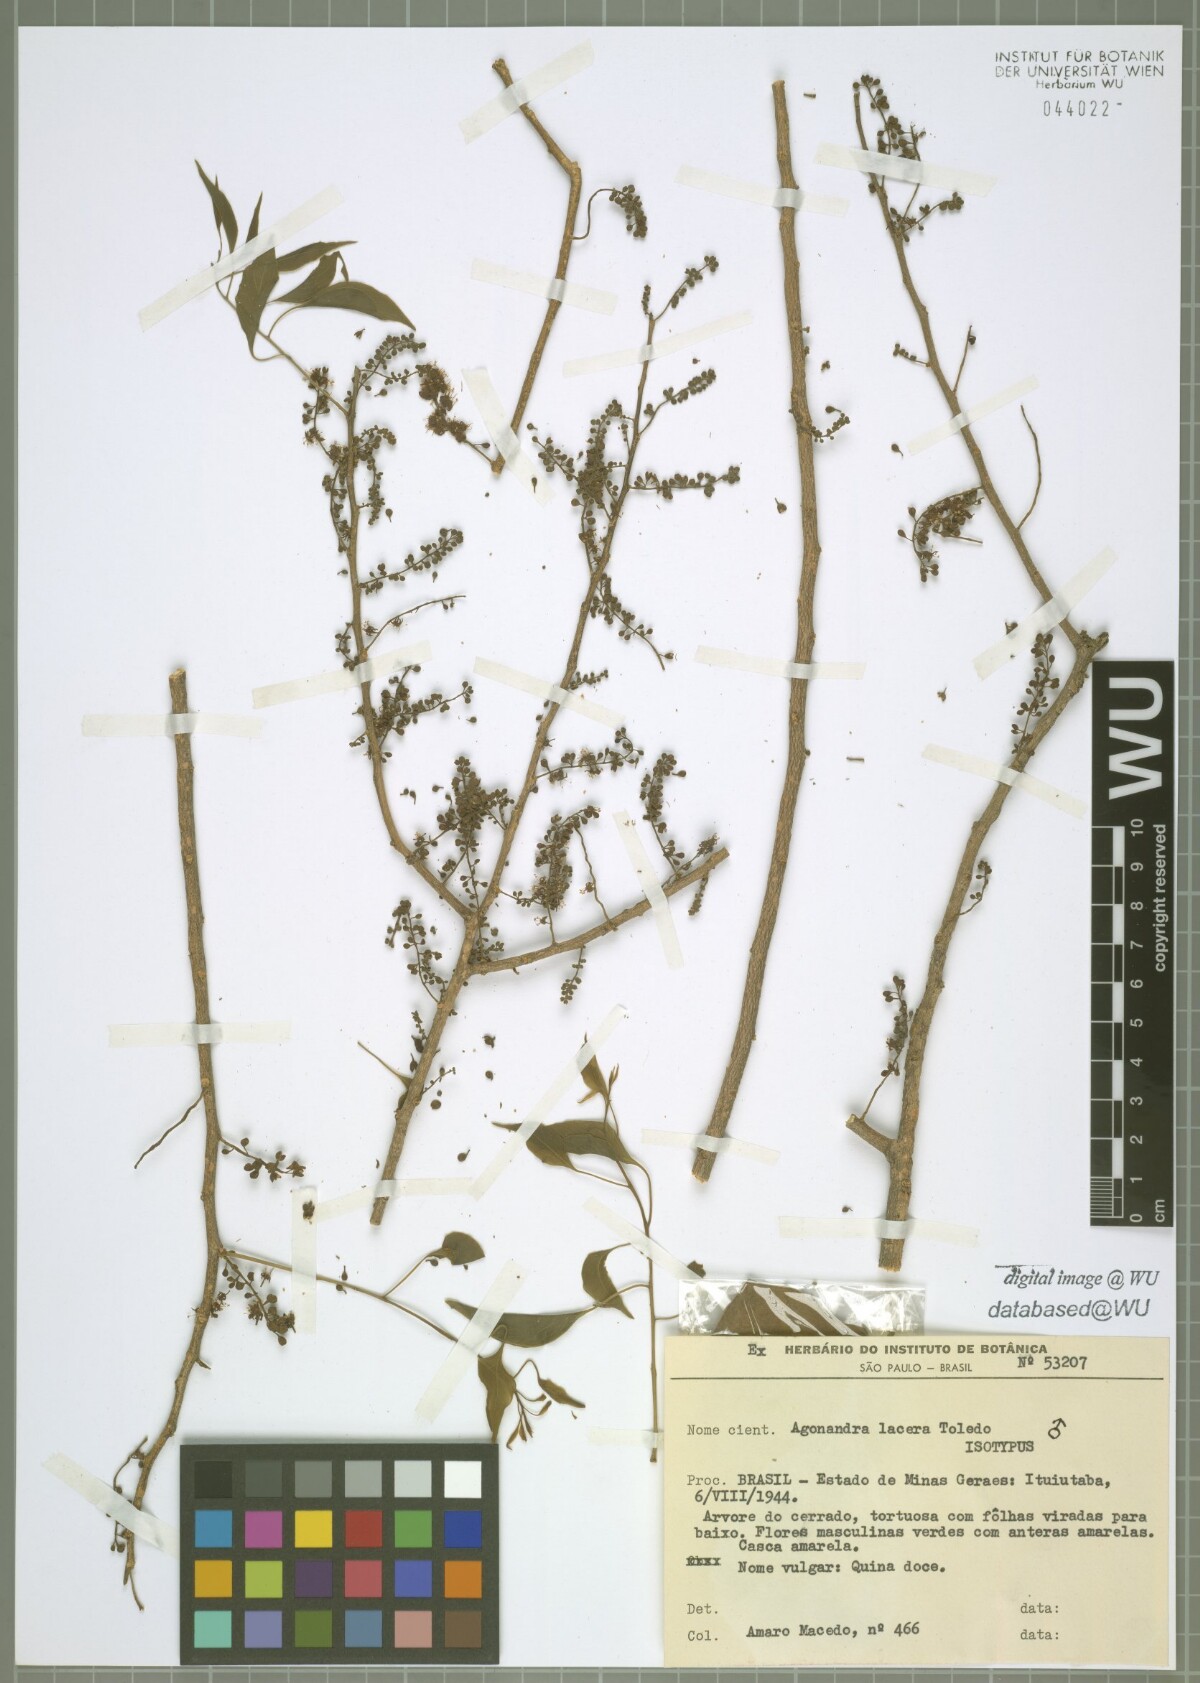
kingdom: Plantae
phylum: Tracheophyta
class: Magnoliopsida
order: Santalales
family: Opiliaceae
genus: Agonandra
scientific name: Agonandra brasiliensis
